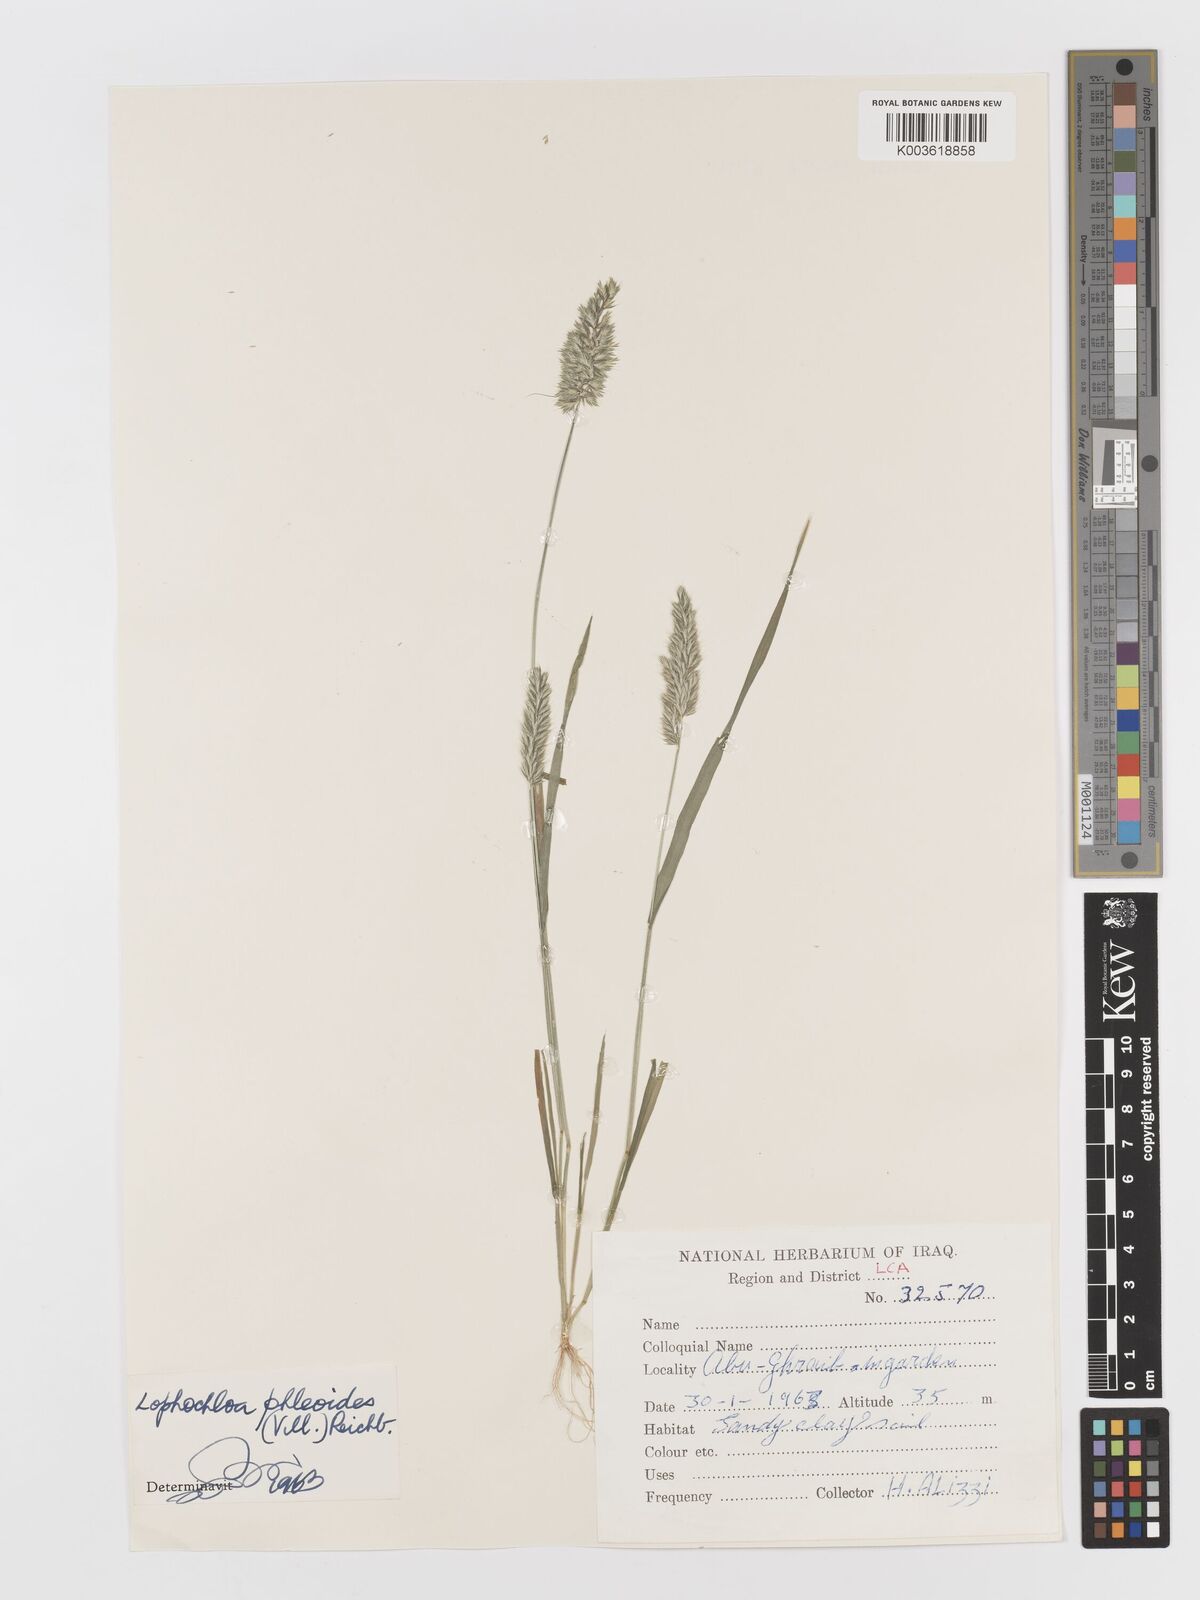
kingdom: Plantae
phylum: Tracheophyta
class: Liliopsida
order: Poales
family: Poaceae
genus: Rostraria
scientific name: Rostraria cristata
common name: Mediterranean hair-grass
